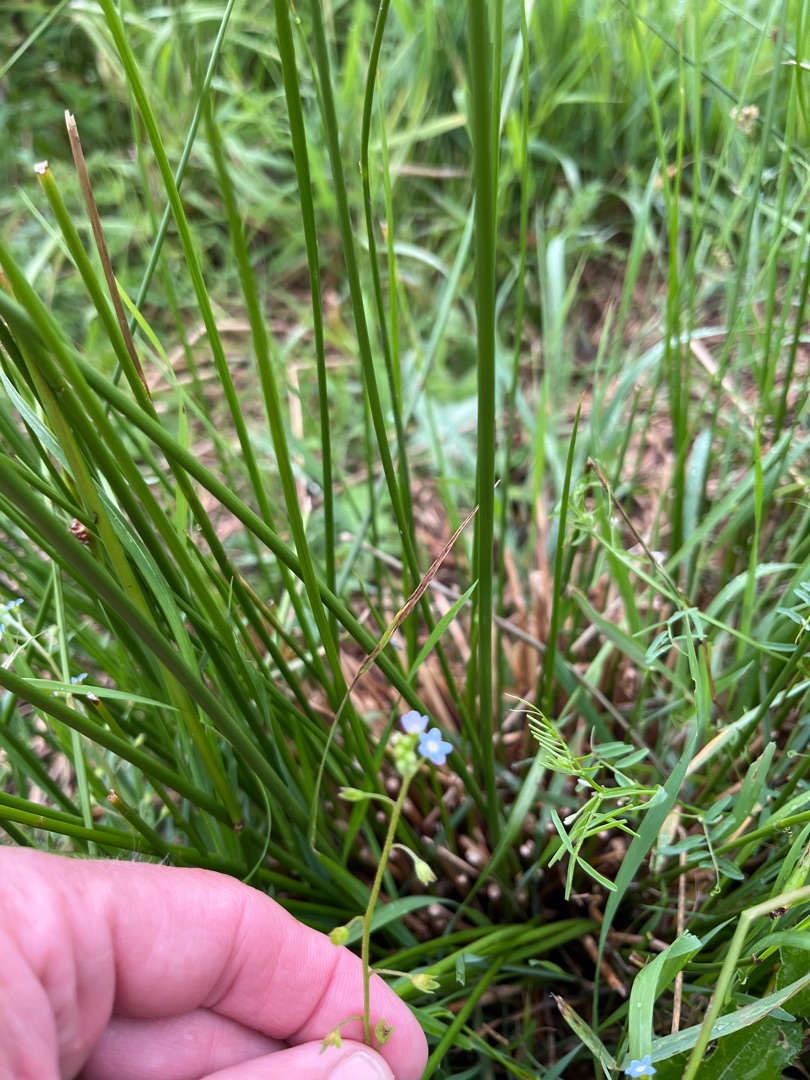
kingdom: Plantae
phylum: Tracheophyta
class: Magnoliopsida
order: Boraginales
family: Boraginaceae
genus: Myosotis
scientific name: Myosotis laxa
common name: Sump-forglemmigej
